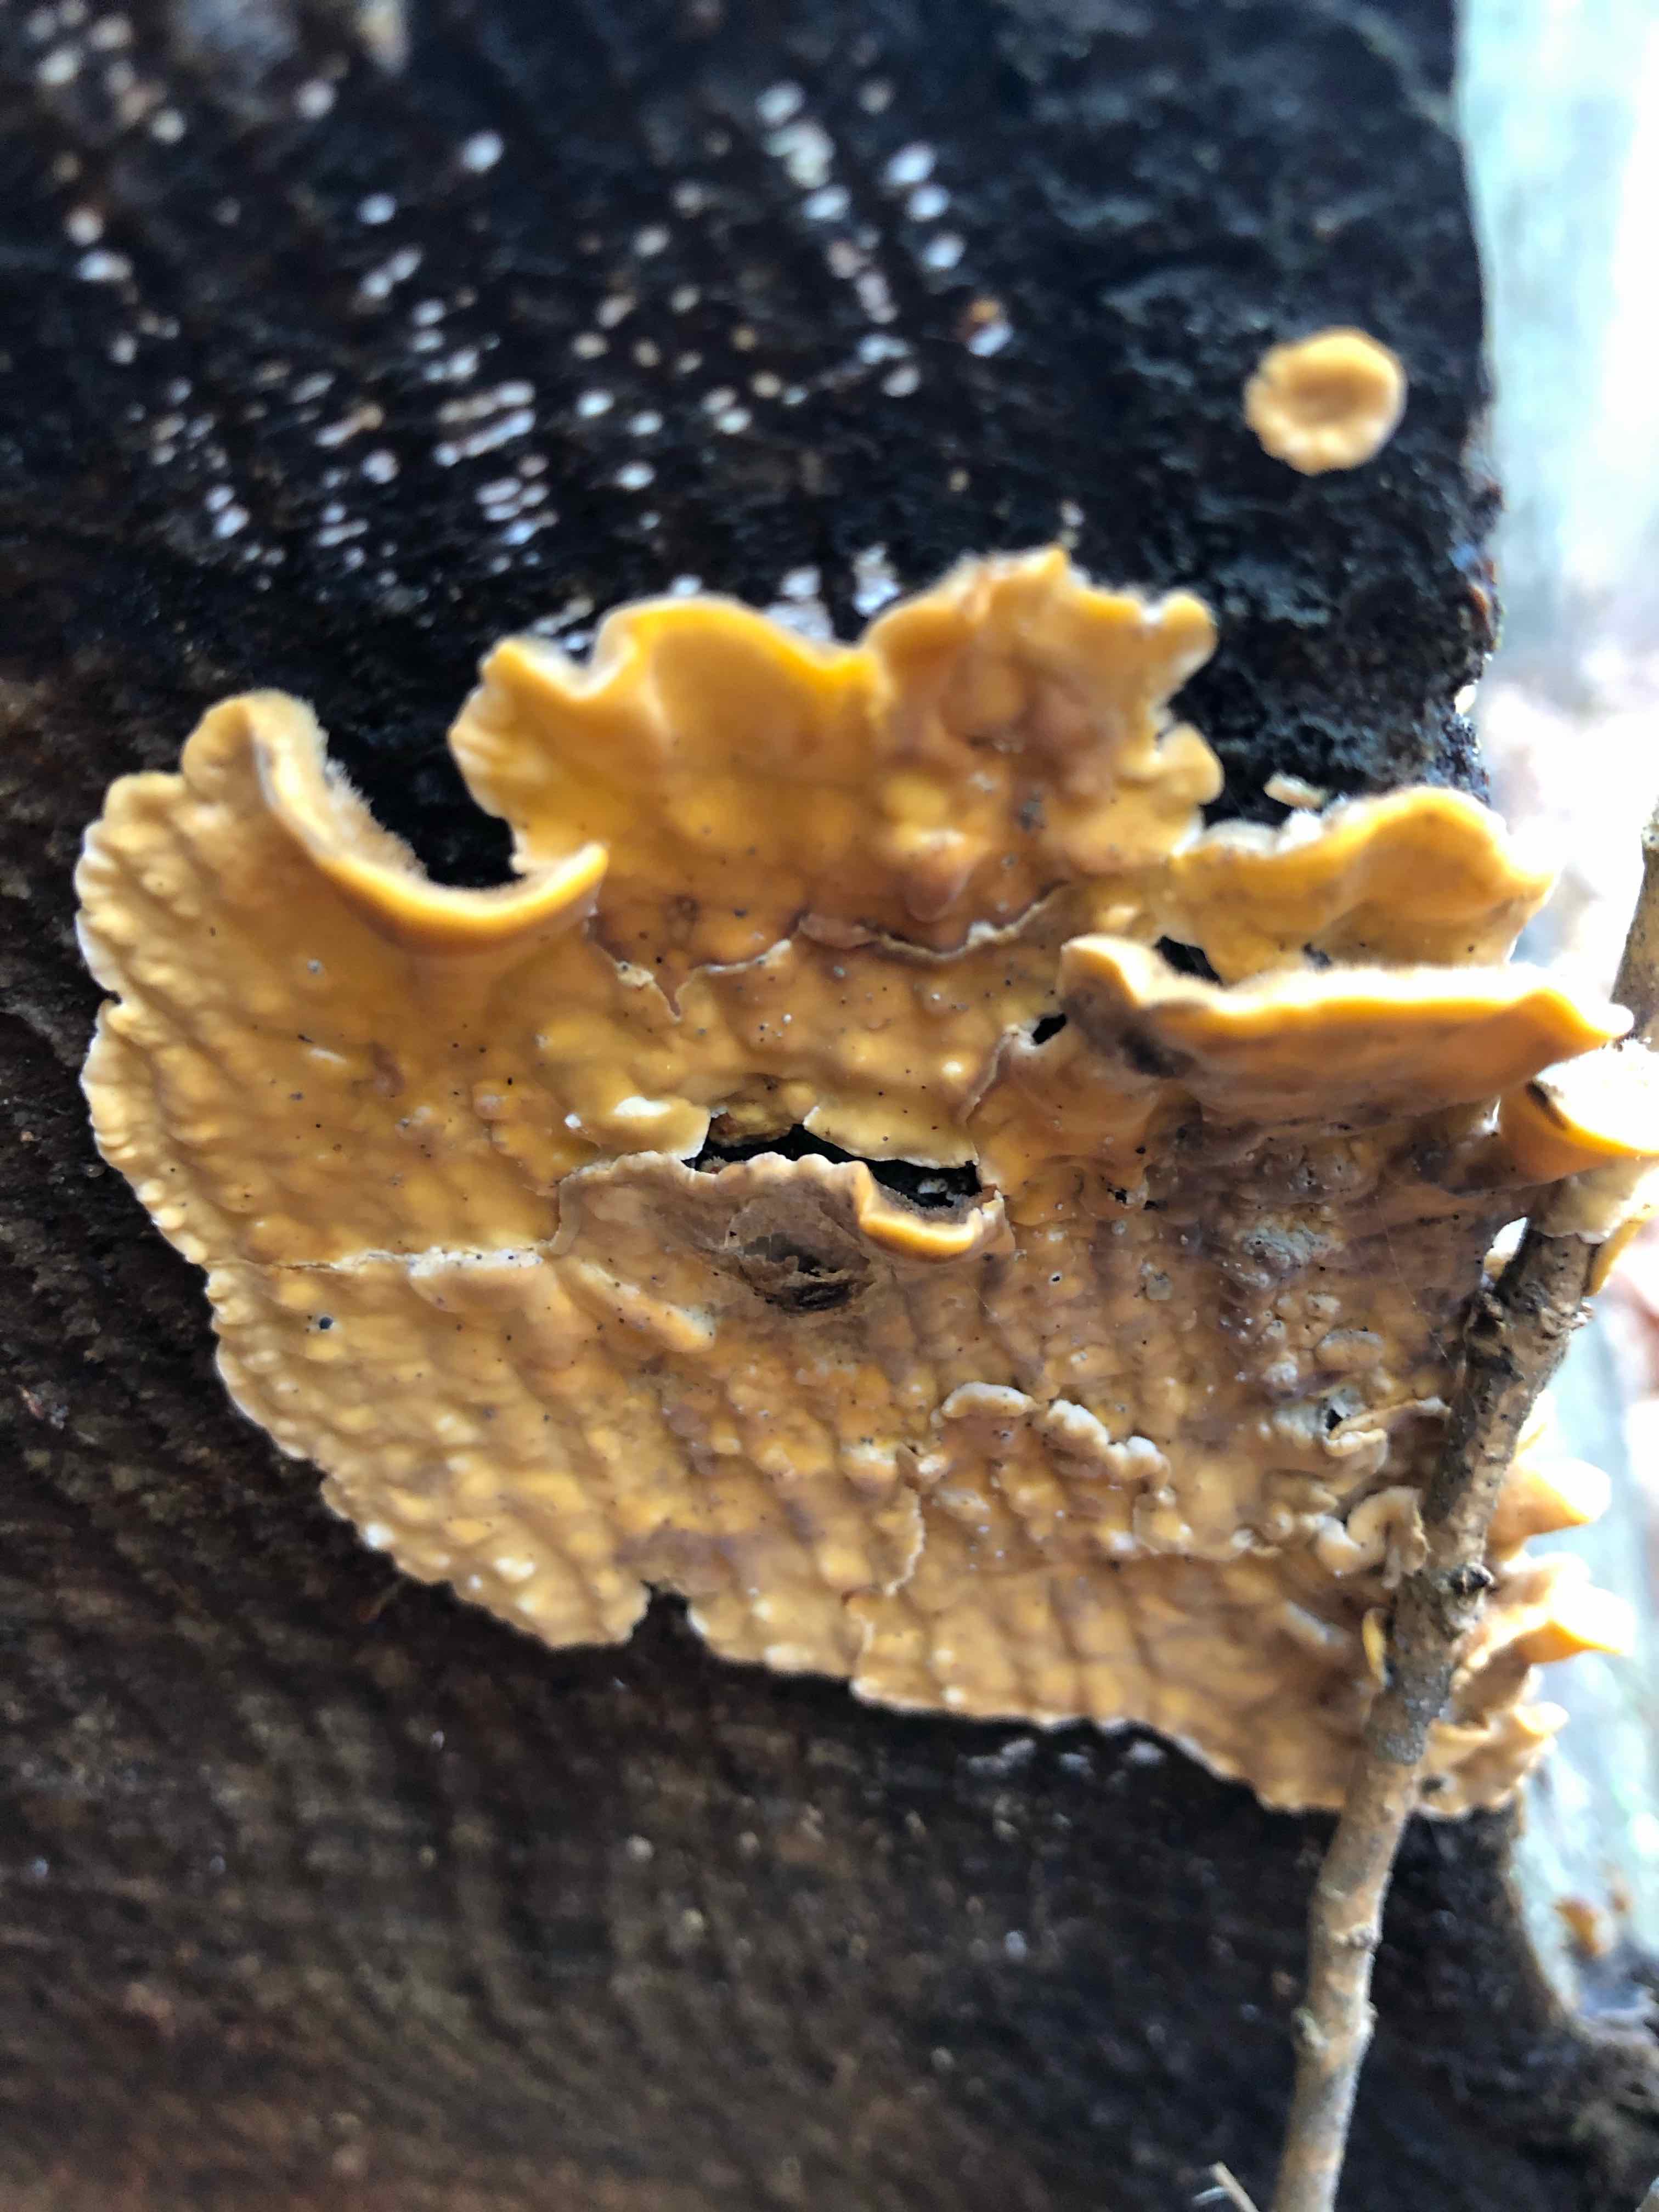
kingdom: Fungi
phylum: Basidiomycota
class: Agaricomycetes
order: Russulales
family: Stereaceae
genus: Stereum
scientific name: Stereum hirsutum
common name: håret lædersvamp
